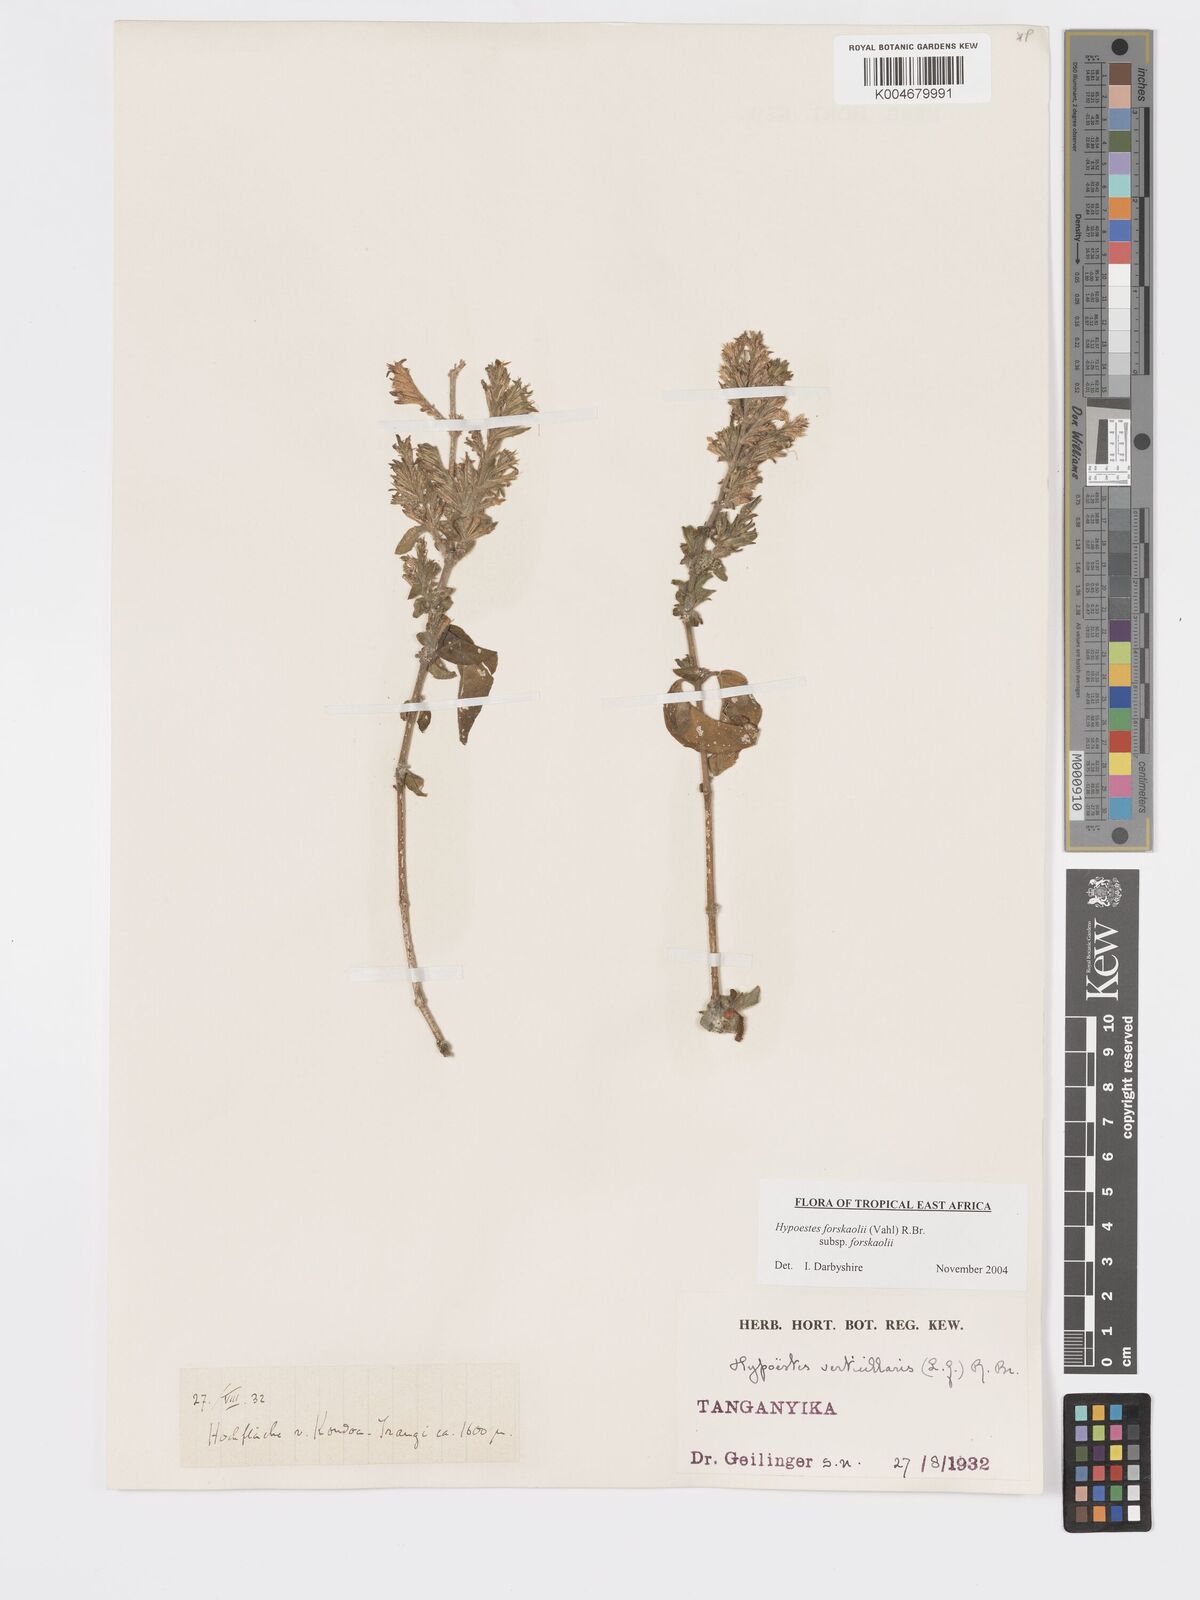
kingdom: Plantae
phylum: Tracheophyta
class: Magnoliopsida
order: Lamiales
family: Acanthaceae
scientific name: Acanthaceae
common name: Acanthaceae
